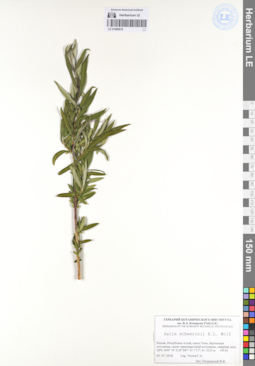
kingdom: Plantae
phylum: Tracheophyta
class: Magnoliopsida
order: Malpighiales
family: Salicaceae
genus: Salix
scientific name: Salix schwerinii
